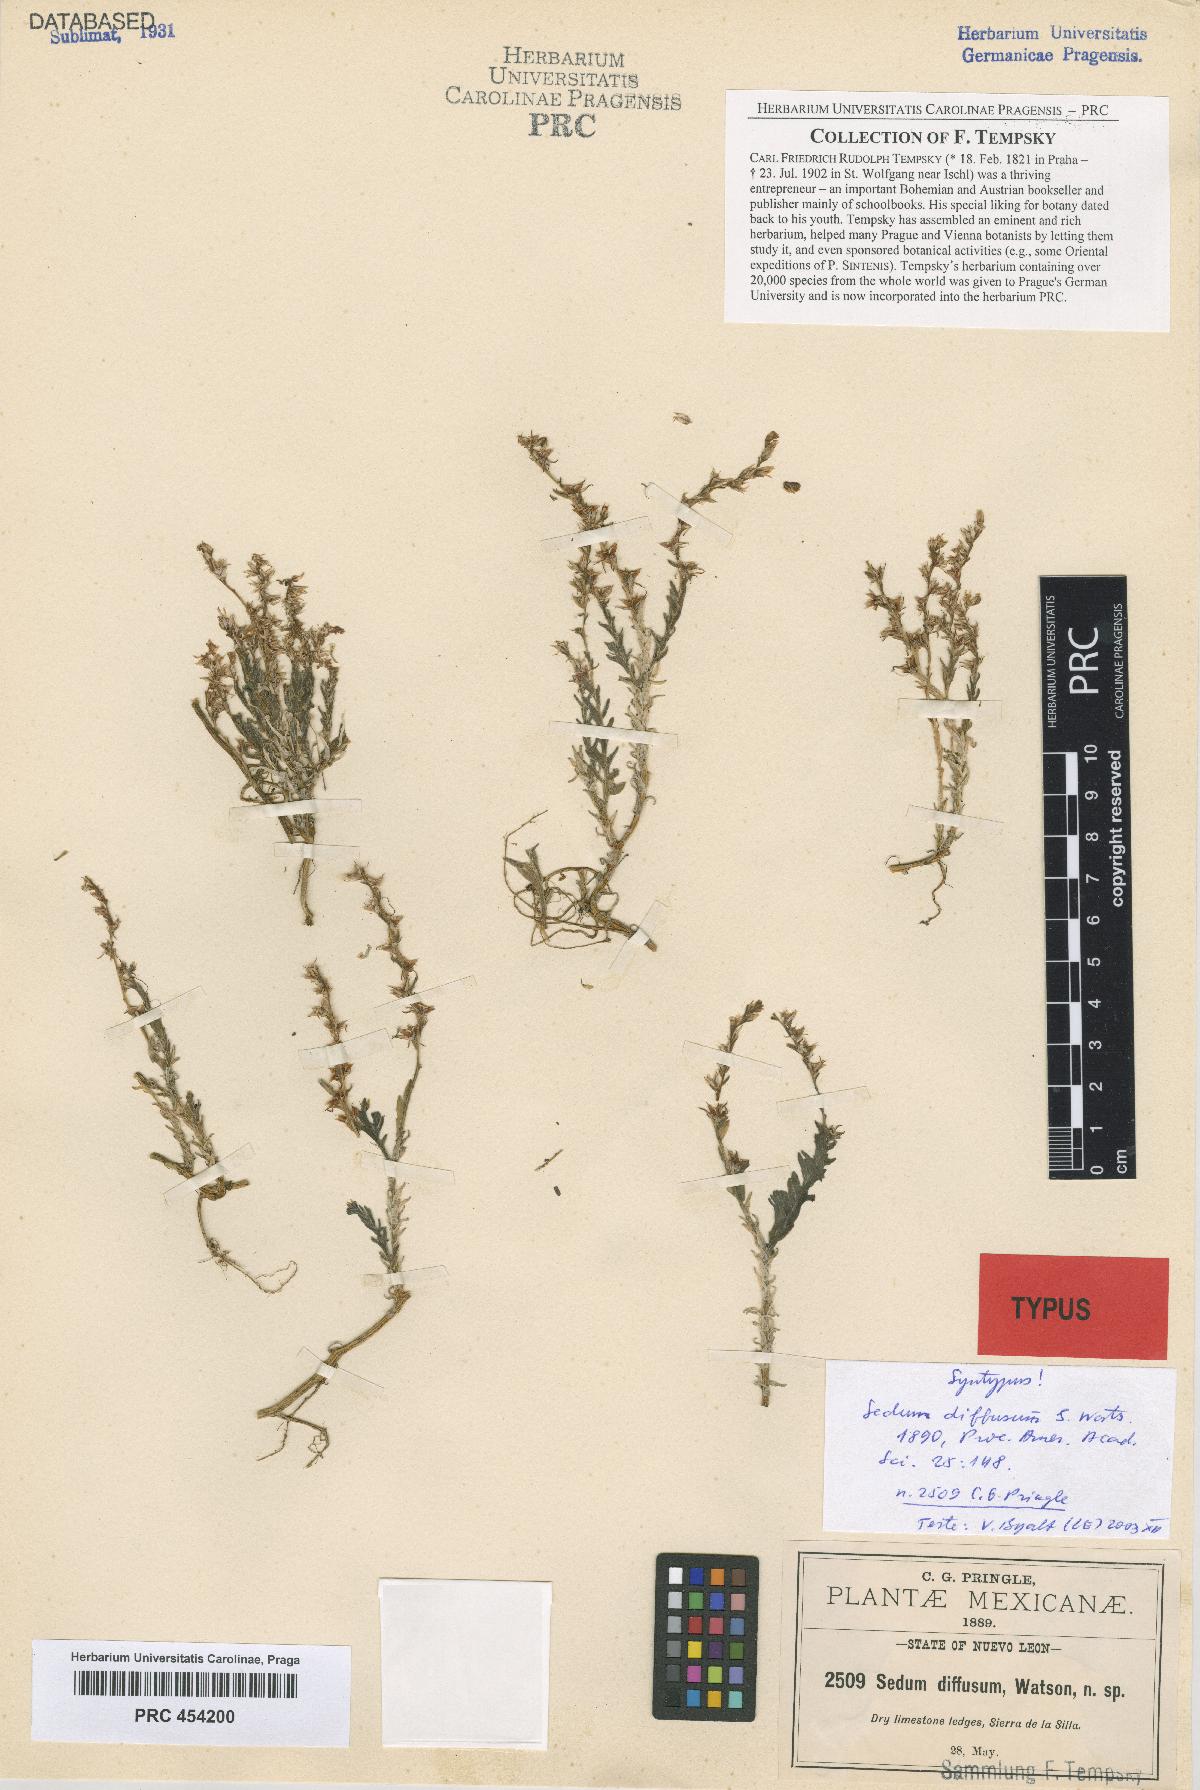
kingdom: Plantae
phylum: Tracheophyta
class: Magnoliopsida
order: Saxifragales
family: Crassulaceae
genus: Sedum
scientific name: Sedum diffusum
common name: Stonecrop
